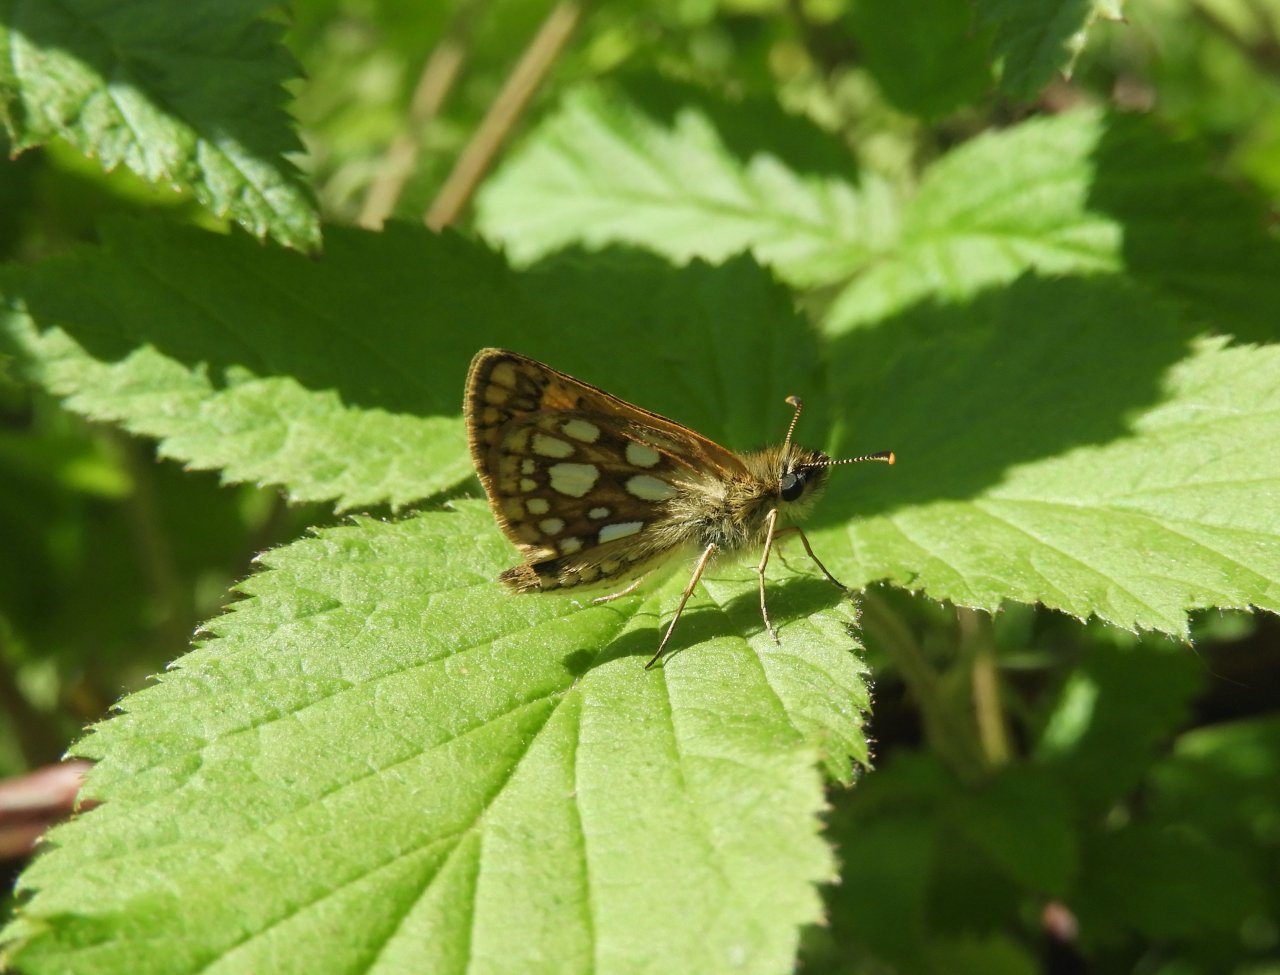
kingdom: Animalia
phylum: Arthropoda
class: Insecta
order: Lepidoptera
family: Hesperiidae
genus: Carterocephalus
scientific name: Carterocephalus palaemon
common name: Chequered Skipper
